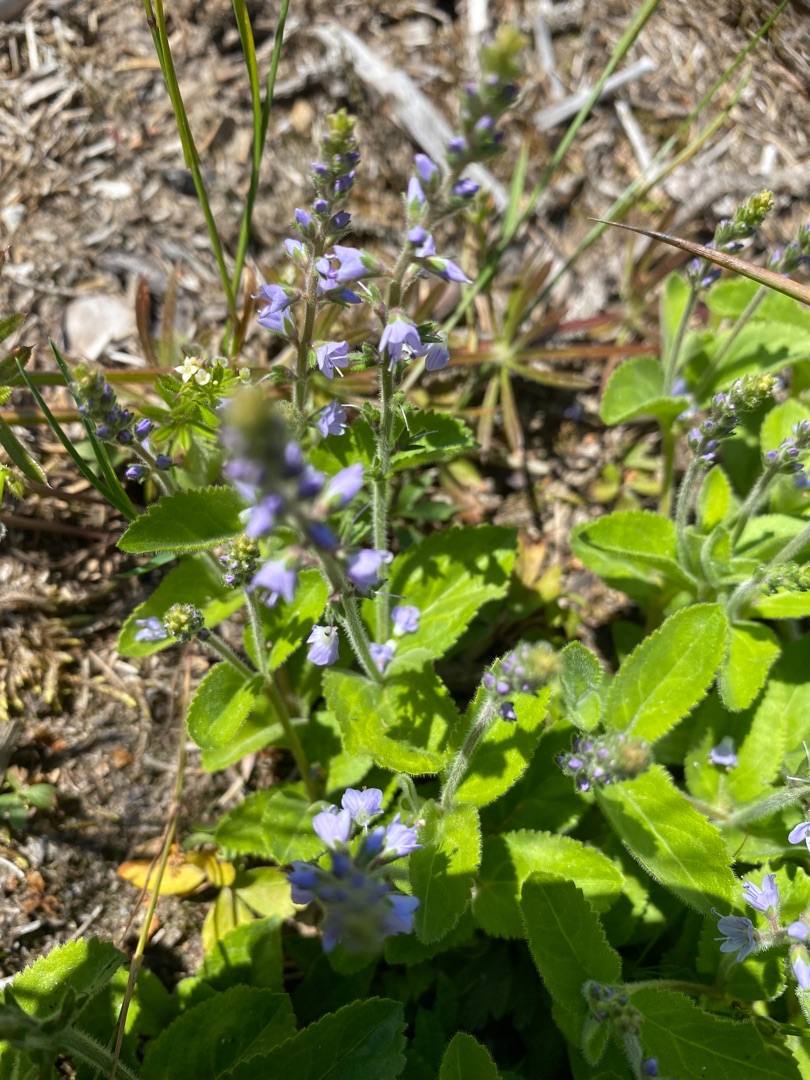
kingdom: Plantae
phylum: Tracheophyta
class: Magnoliopsida
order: Lamiales
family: Plantaginaceae
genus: Veronica
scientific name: Veronica officinalis
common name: Læge-ærenpris
